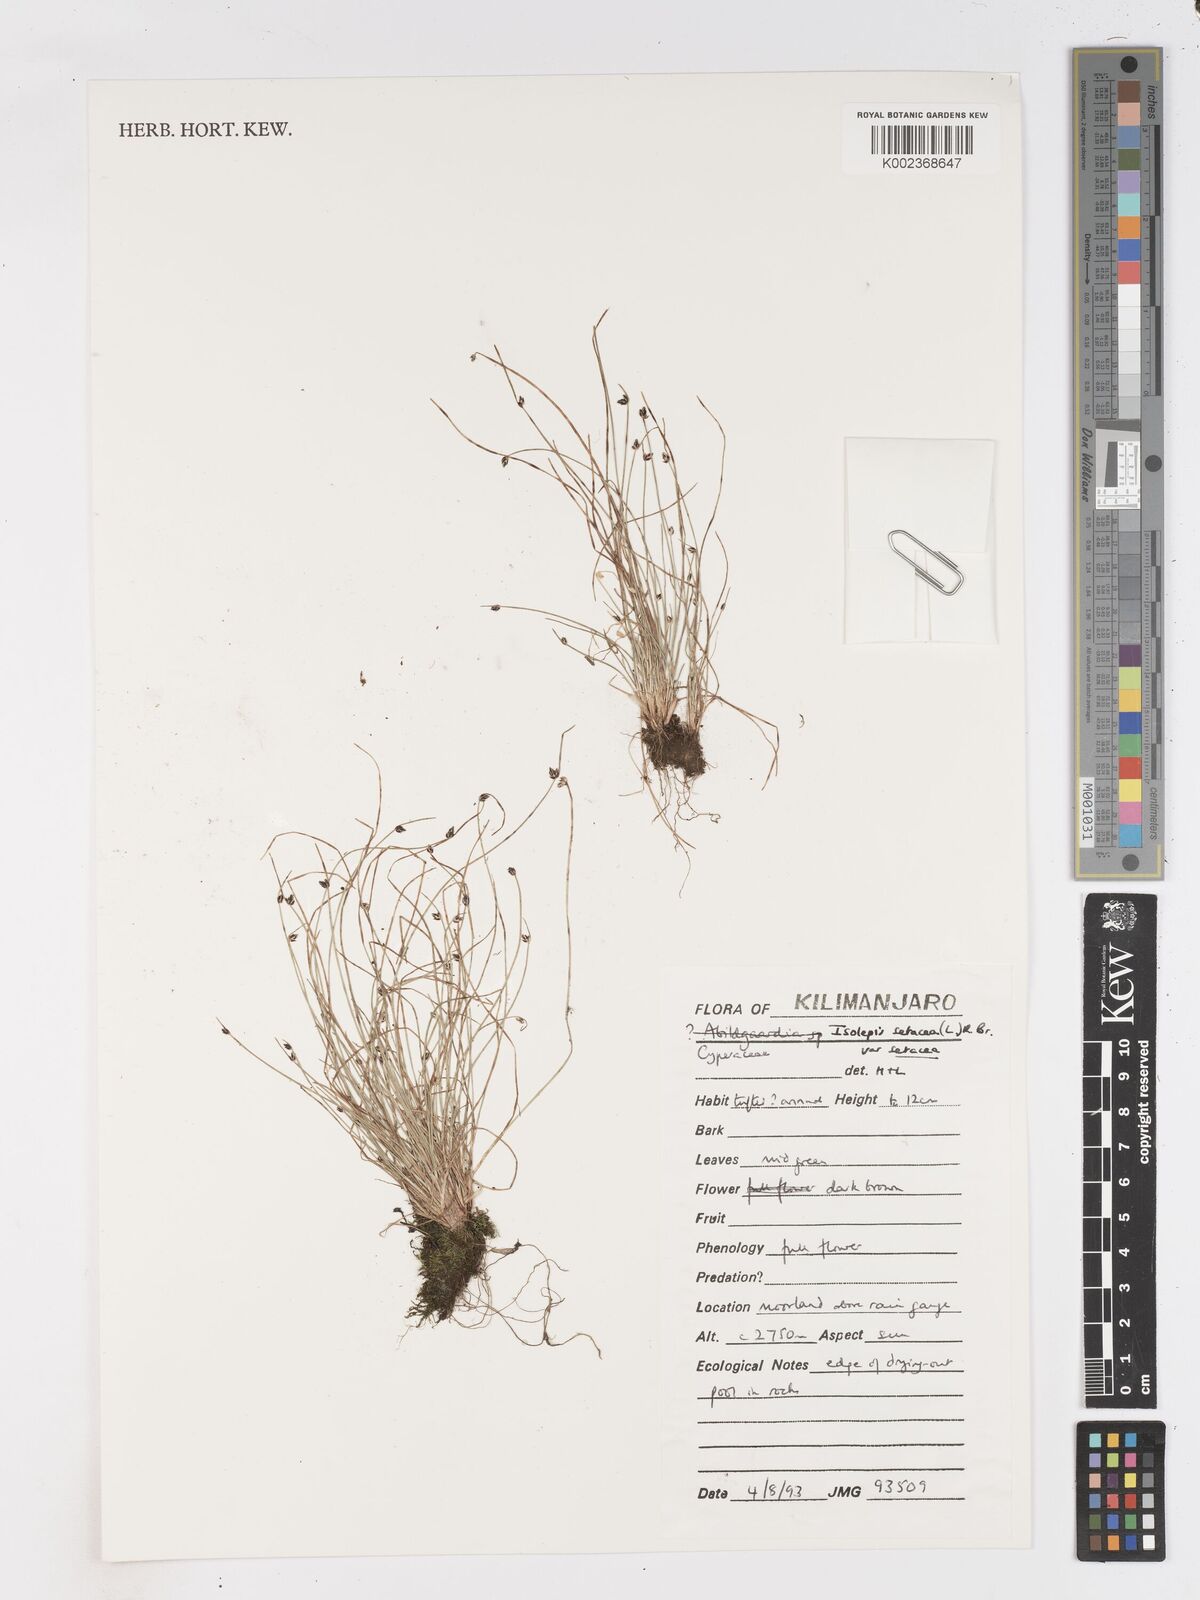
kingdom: Plantae
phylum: Tracheophyta
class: Liliopsida
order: Poales
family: Cyperaceae
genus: Isolepis
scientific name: Isolepis setacea
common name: Bristle club-rush
